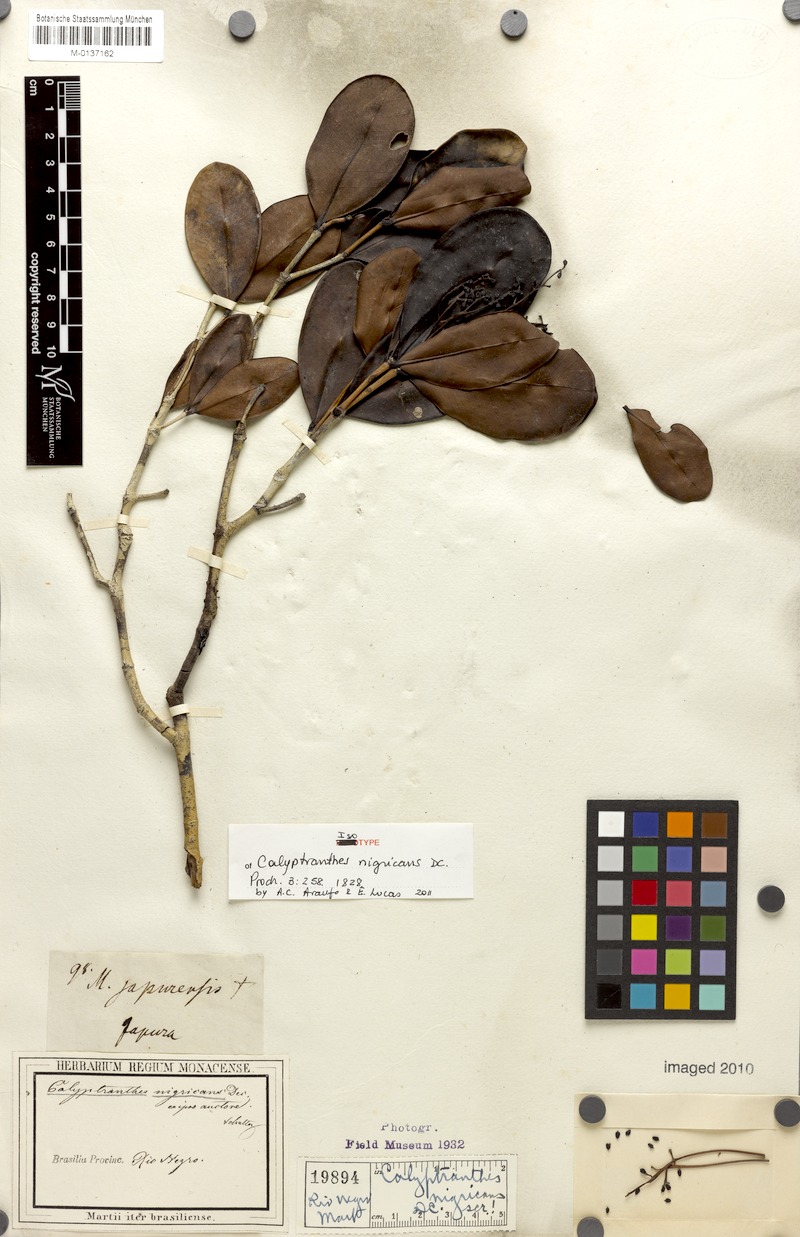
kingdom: Plantae
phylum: Tracheophyta
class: Magnoliopsida
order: Myrtales
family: Myrtaceae
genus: Myrcia
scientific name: Myrcia melanophylla
